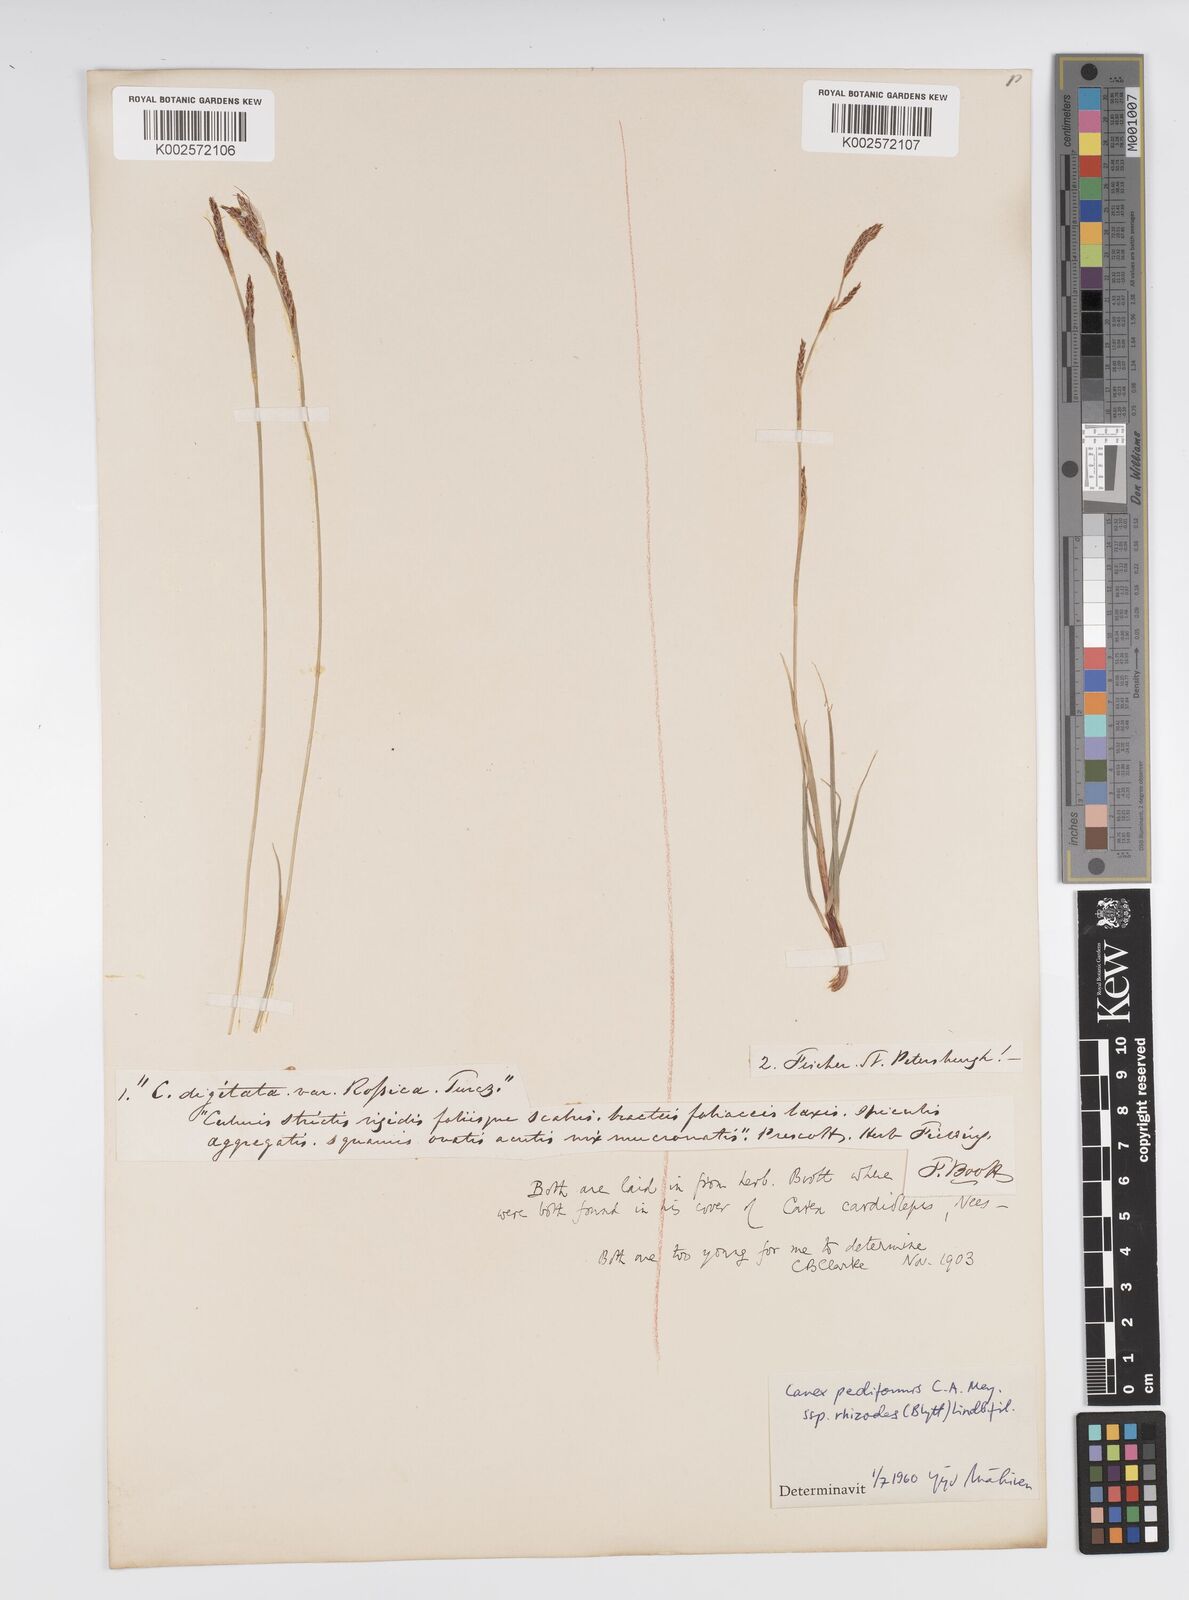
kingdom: Plantae
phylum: Tracheophyta
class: Liliopsida
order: Poales
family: Cyperaceae
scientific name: Cyperaceae
